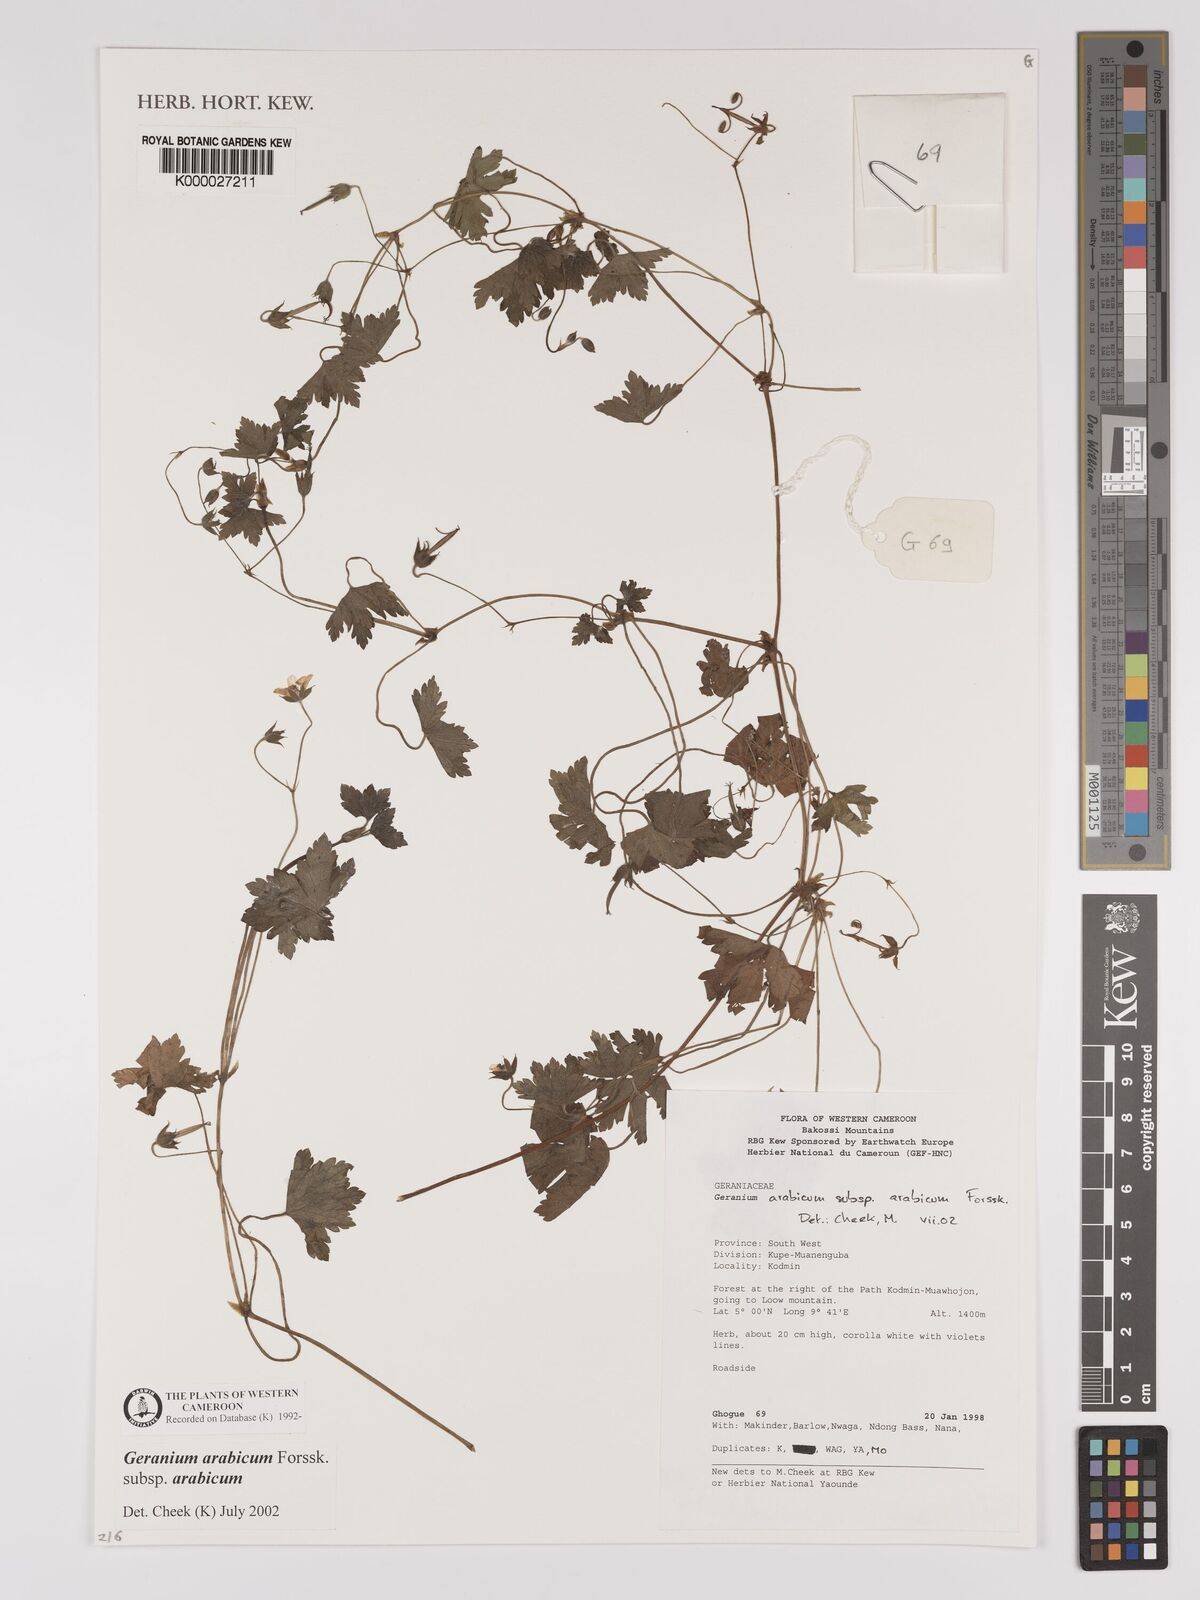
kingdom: Plantae
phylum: Tracheophyta
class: Magnoliopsida
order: Geraniales
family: Geraniaceae
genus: Geranium
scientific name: Geranium arabicum
